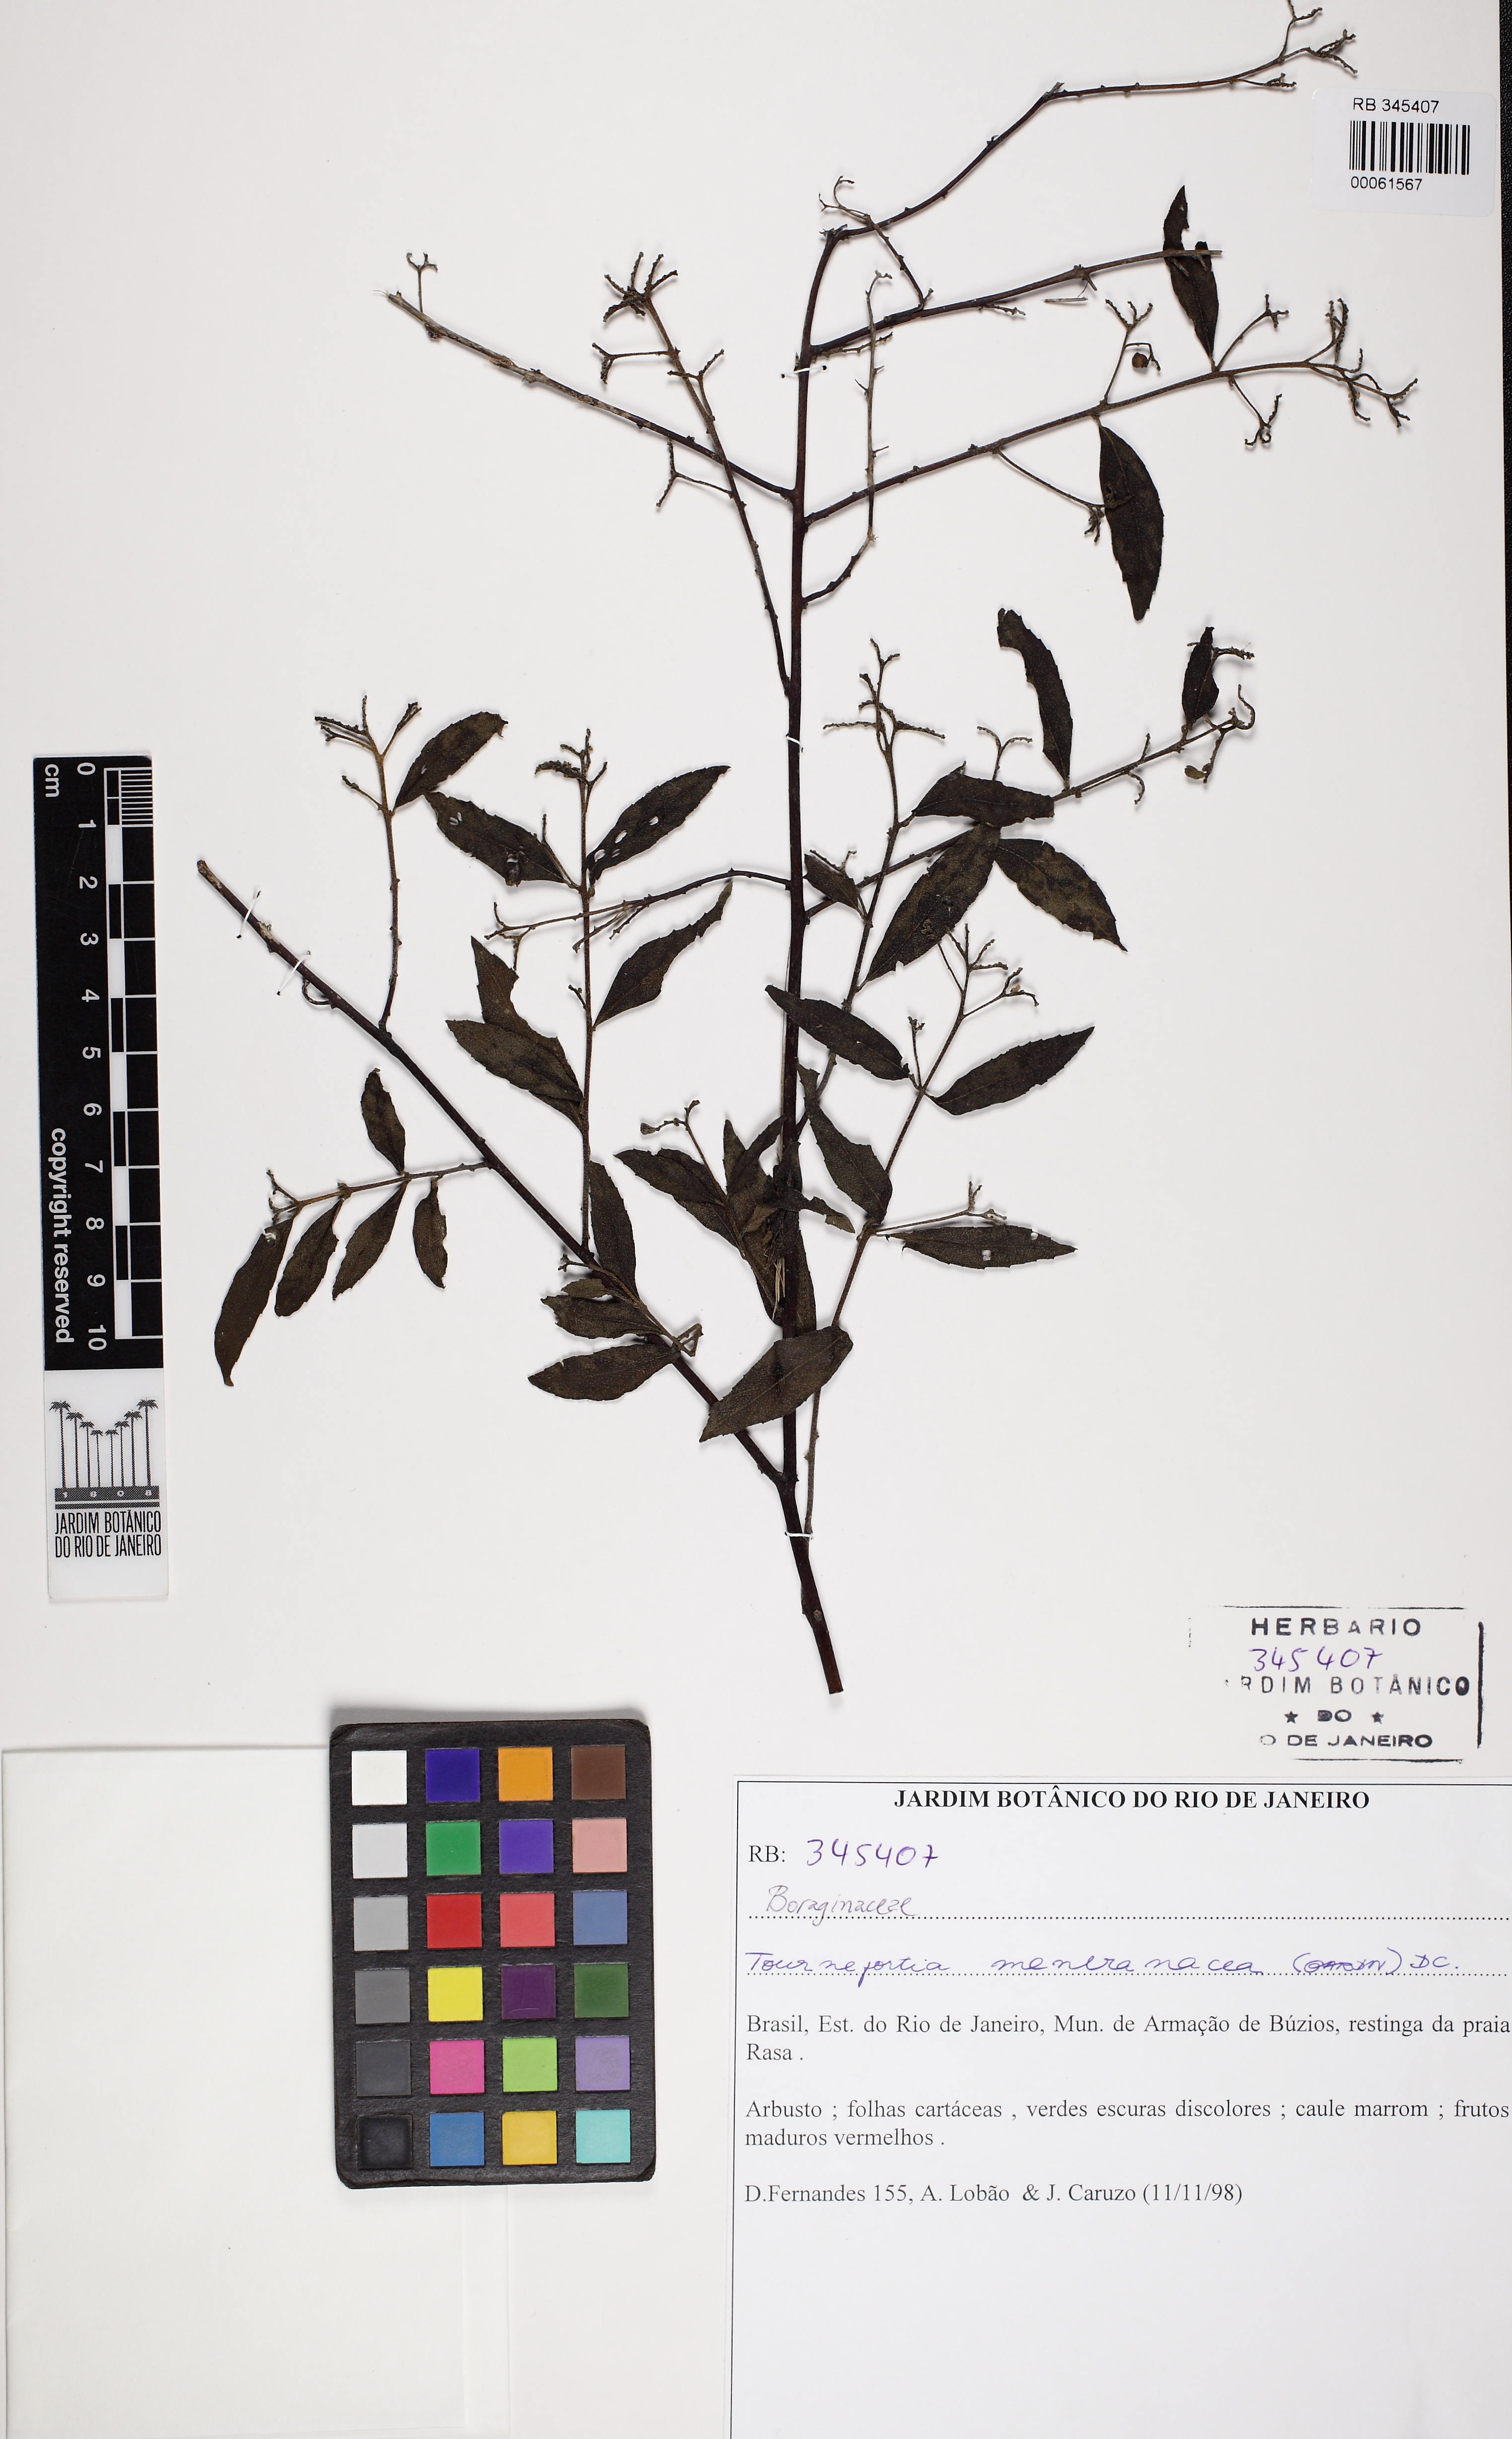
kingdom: Plantae
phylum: Tracheophyta
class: Magnoliopsida
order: Boraginales
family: Heliotropiaceae
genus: Myriopus
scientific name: Myriopus membranaceus
